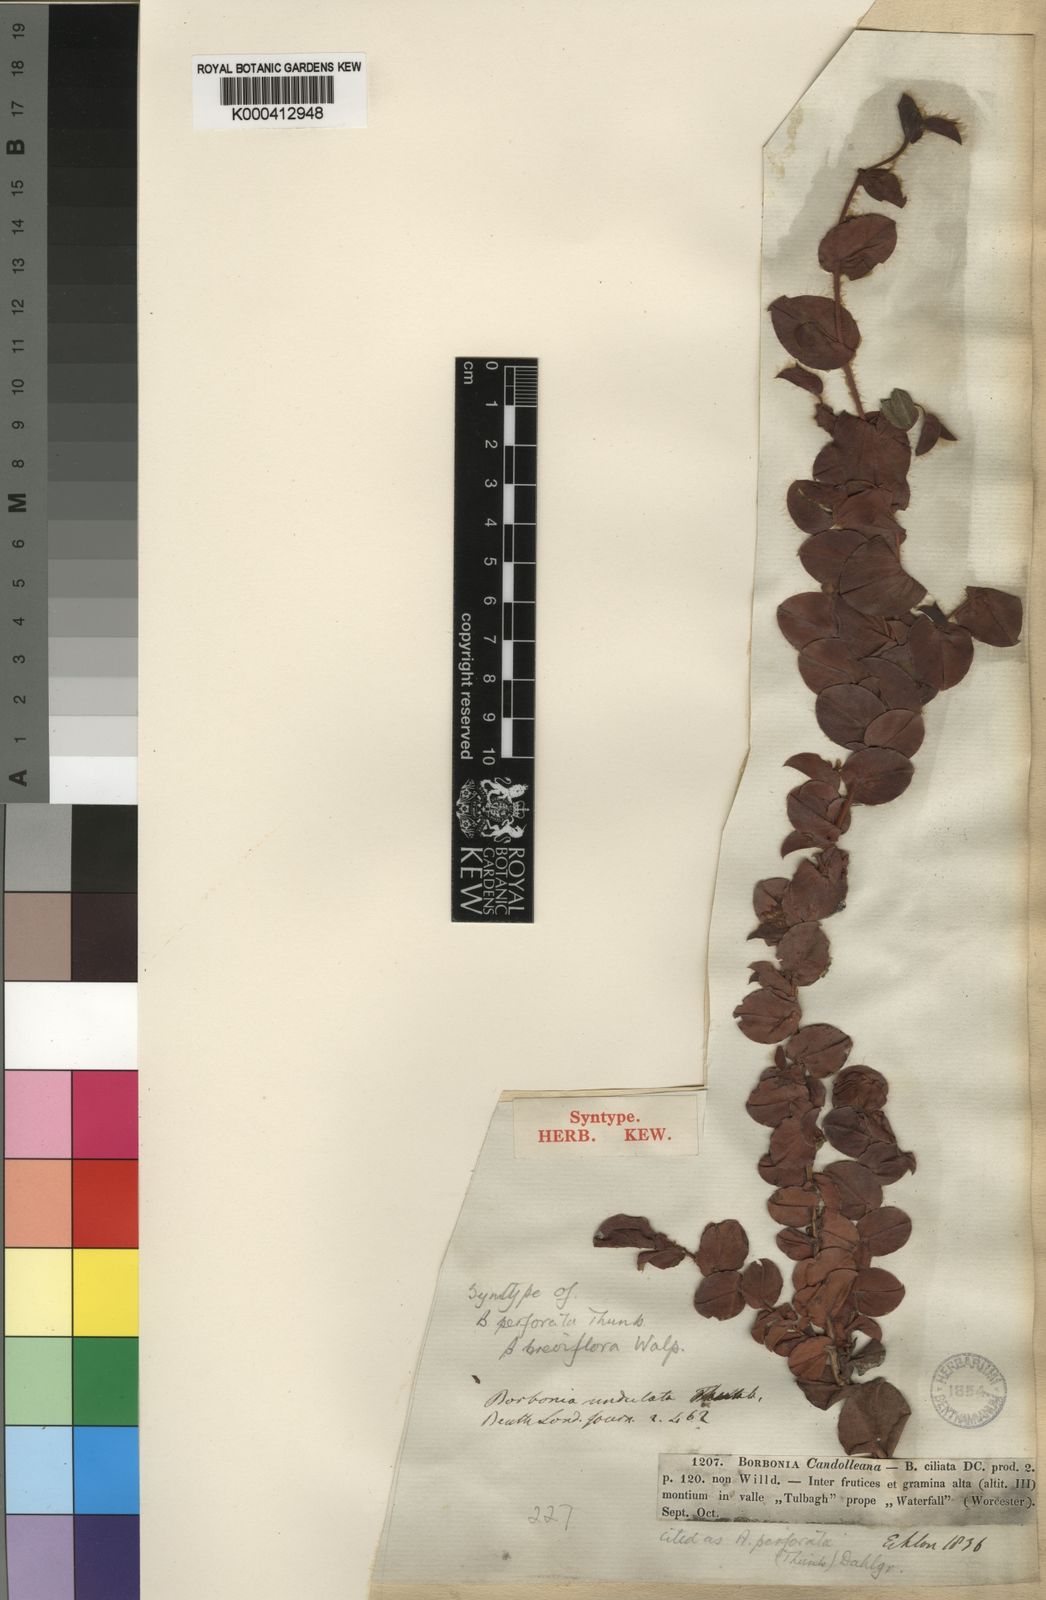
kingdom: Plantae
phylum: Tracheophyta
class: Magnoliopsida
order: Fabales
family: Fabaceae
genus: Aspalathus
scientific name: Aspalathus perforata
